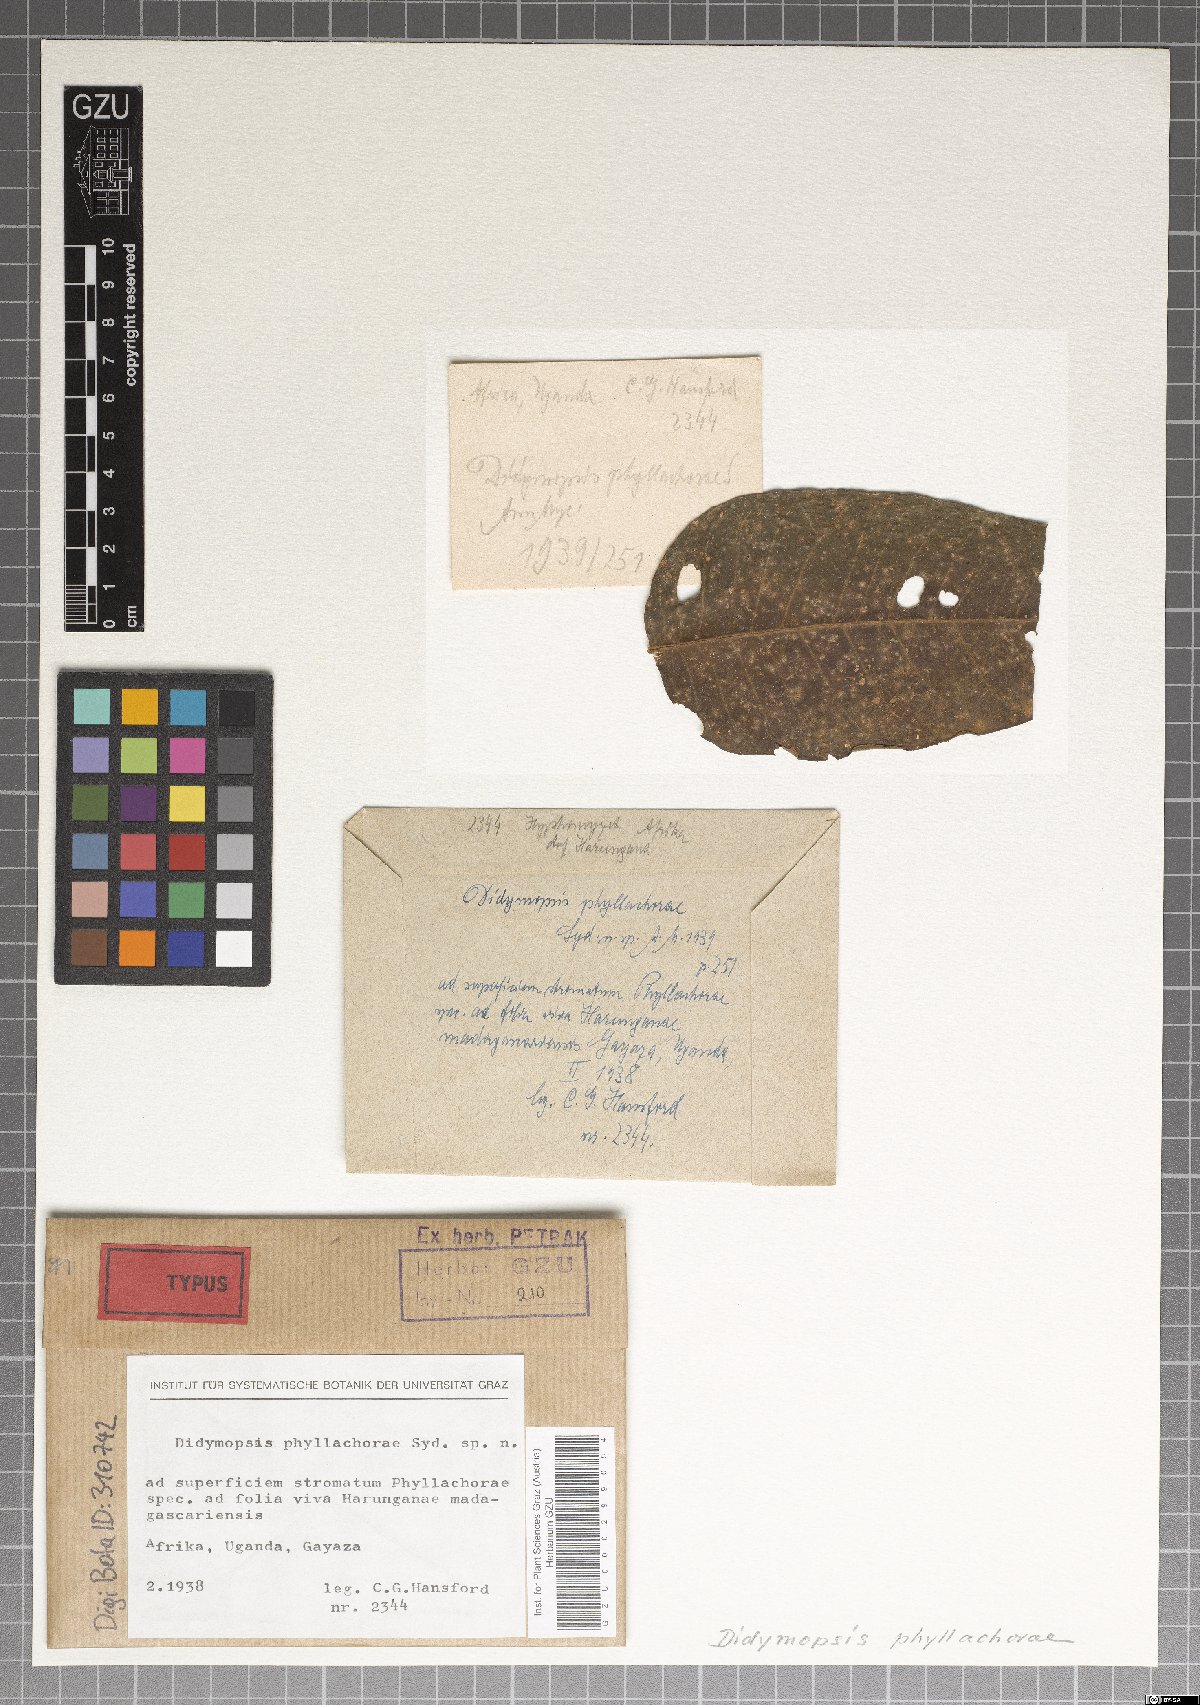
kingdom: Fungi
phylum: Ascomycota
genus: Didymopsis
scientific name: Didymopsis phyllachorae
